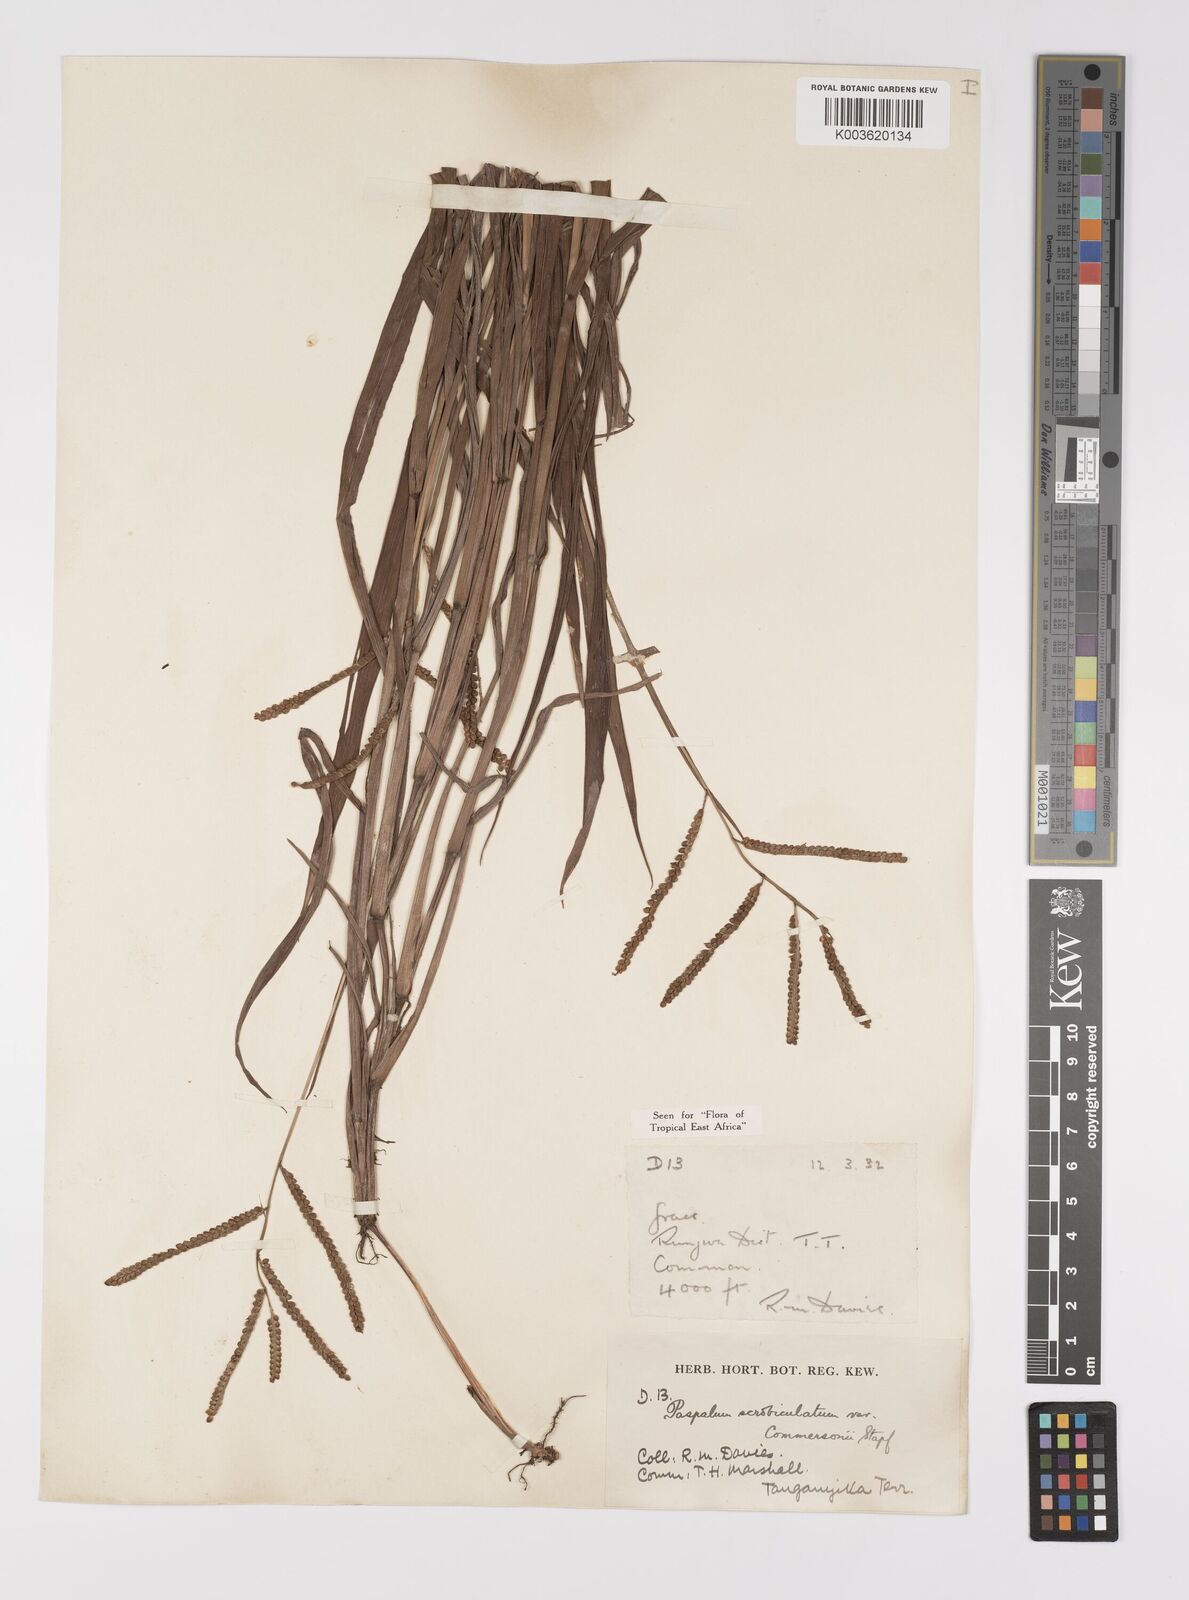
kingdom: Plantae
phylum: Tracheophyta
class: Liliopsida
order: Poales
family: Poaceae
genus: Paspalum
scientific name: Paspalum scrobiculatum
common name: Kodo millet
